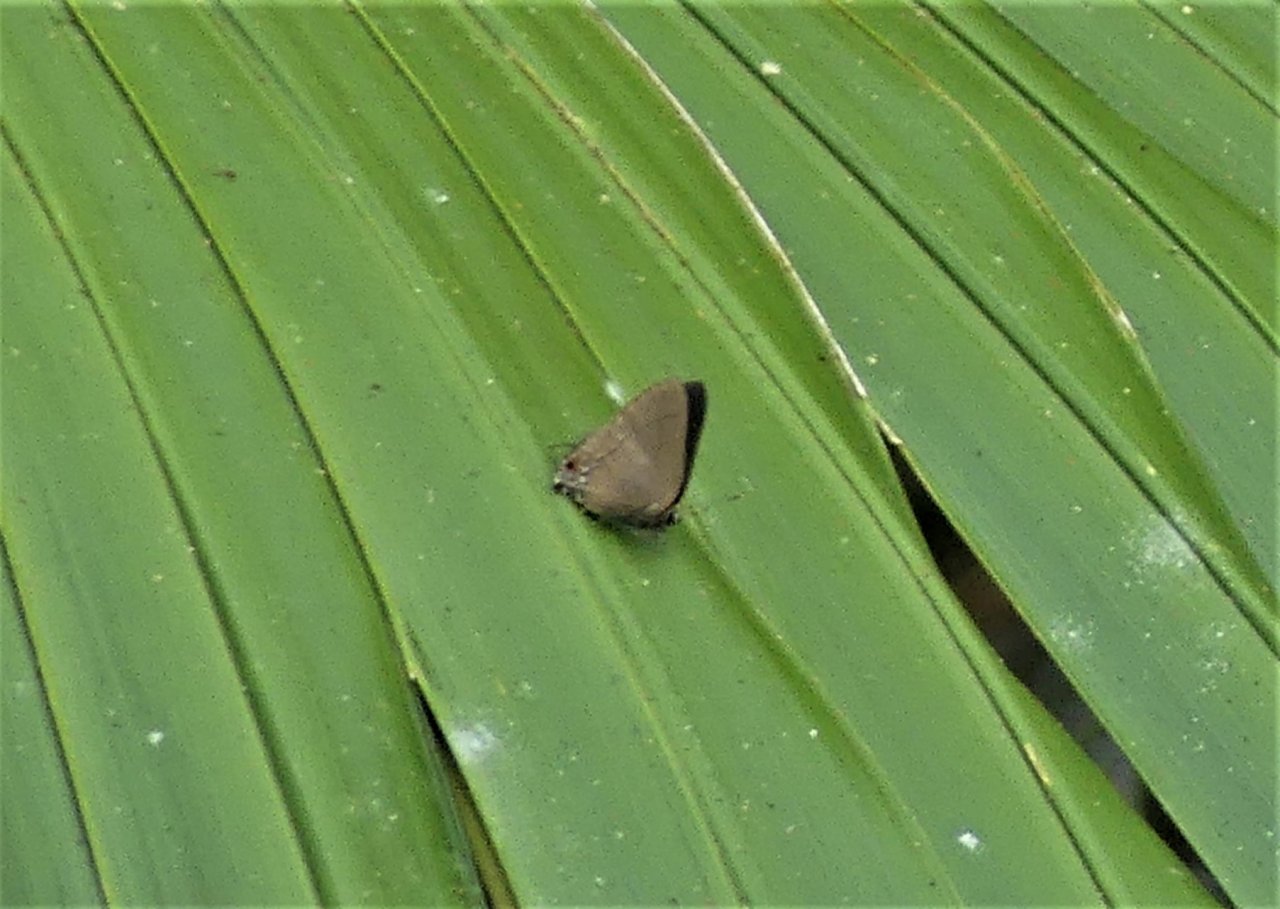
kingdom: Animalia
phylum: Arthropoda
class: Insecta
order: Lepidoptera
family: Lycaenidae
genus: Theritas
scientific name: Theritas mavors
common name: Deep-green Hairstreak
